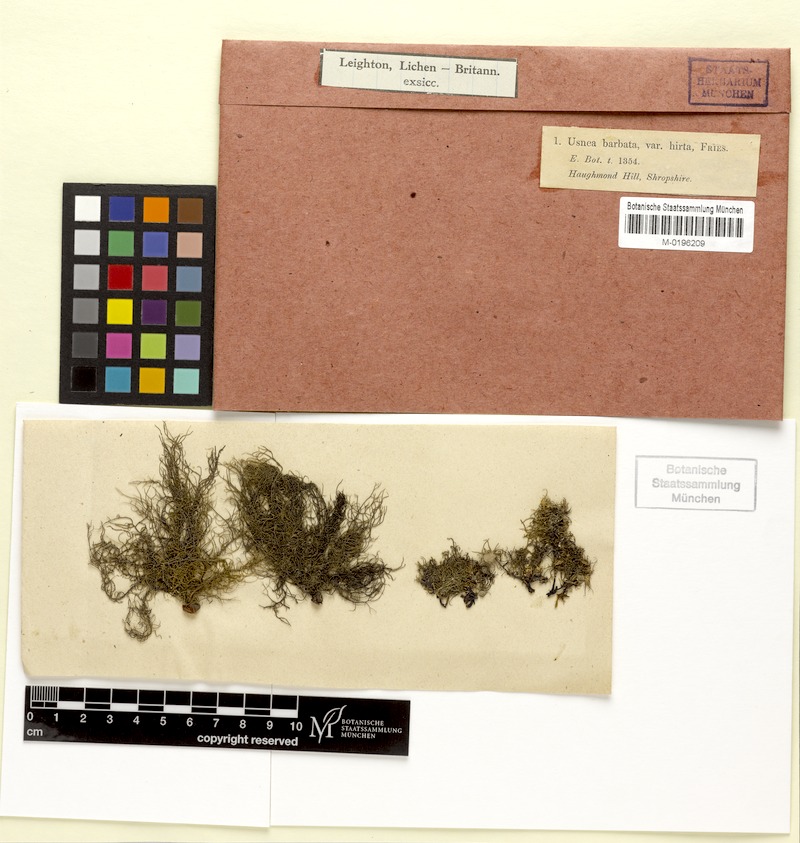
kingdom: Fungi
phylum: Ascomycota
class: Lecanoromycetes
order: Lecanorales
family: Parmeliaceae
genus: Usnea
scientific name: Usnea hirta
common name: Bristly beard lichen
